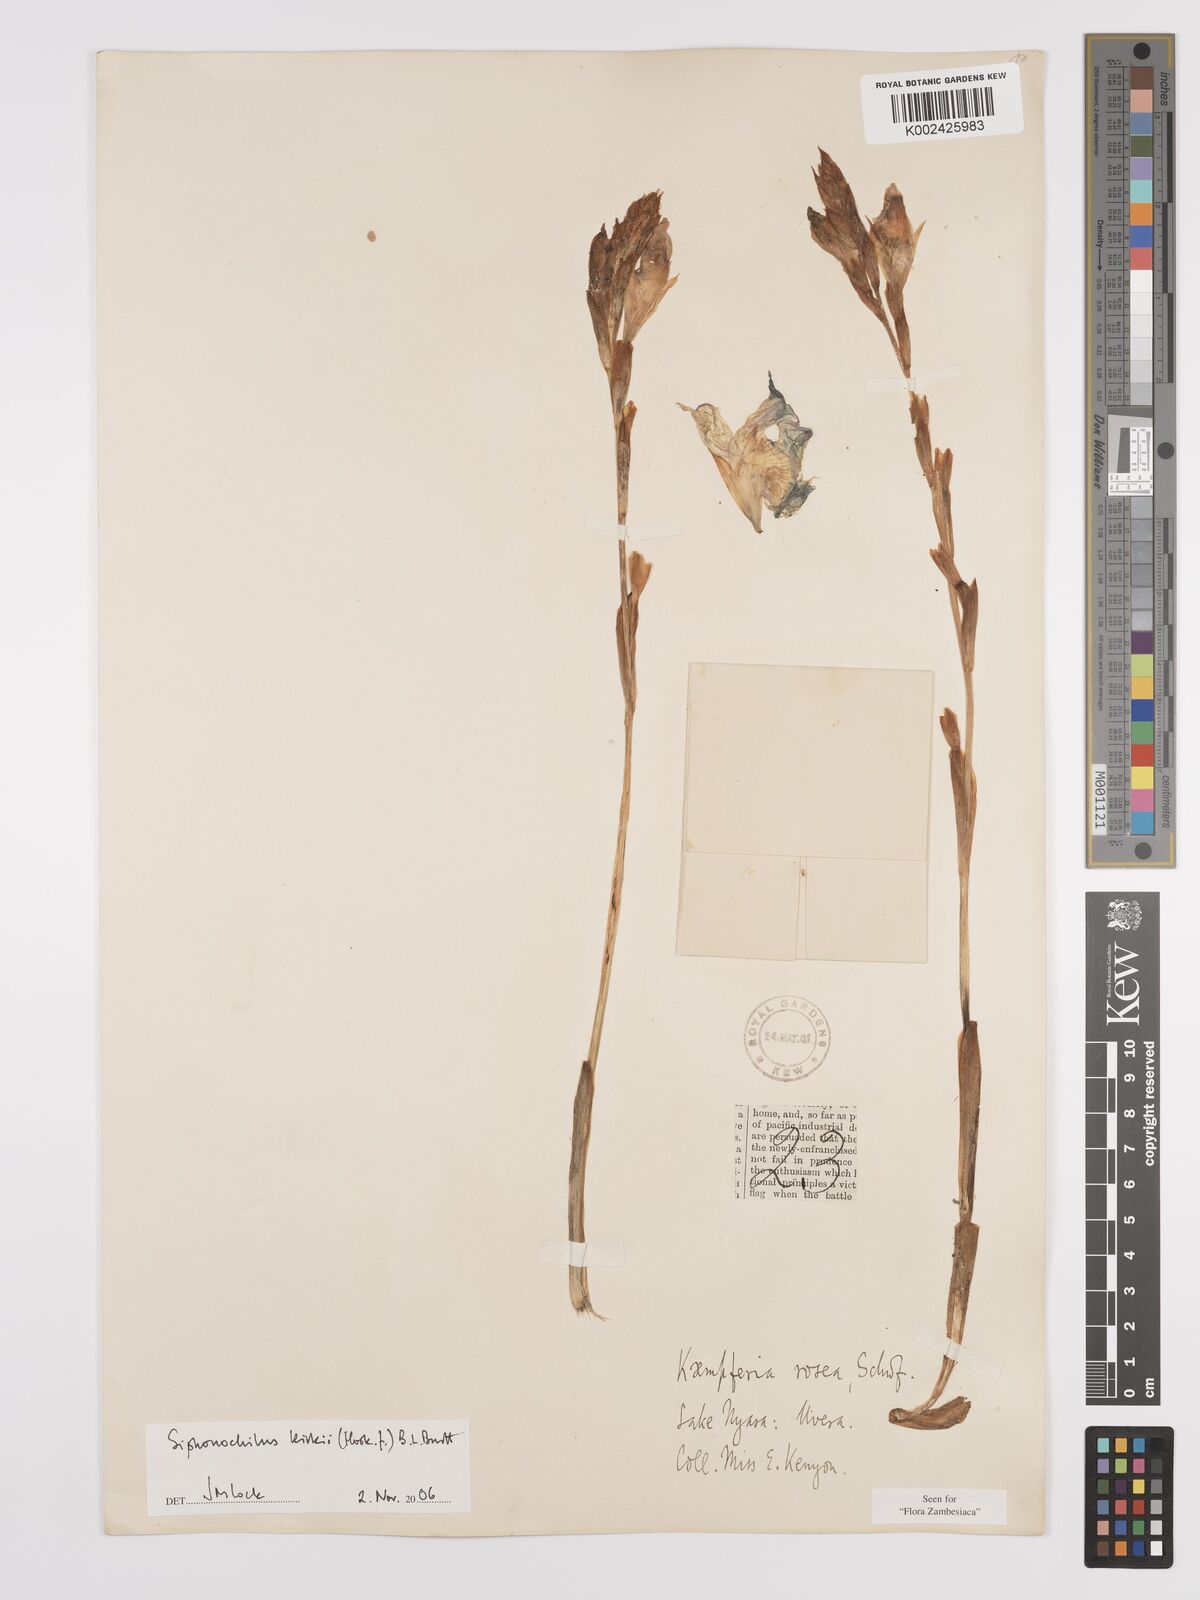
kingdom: Plantae
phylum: Tracheophyta
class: Liliopsida
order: Zingiberales
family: Zingiberaceae
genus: Siphonochilus
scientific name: Siphonochilus kirkii
